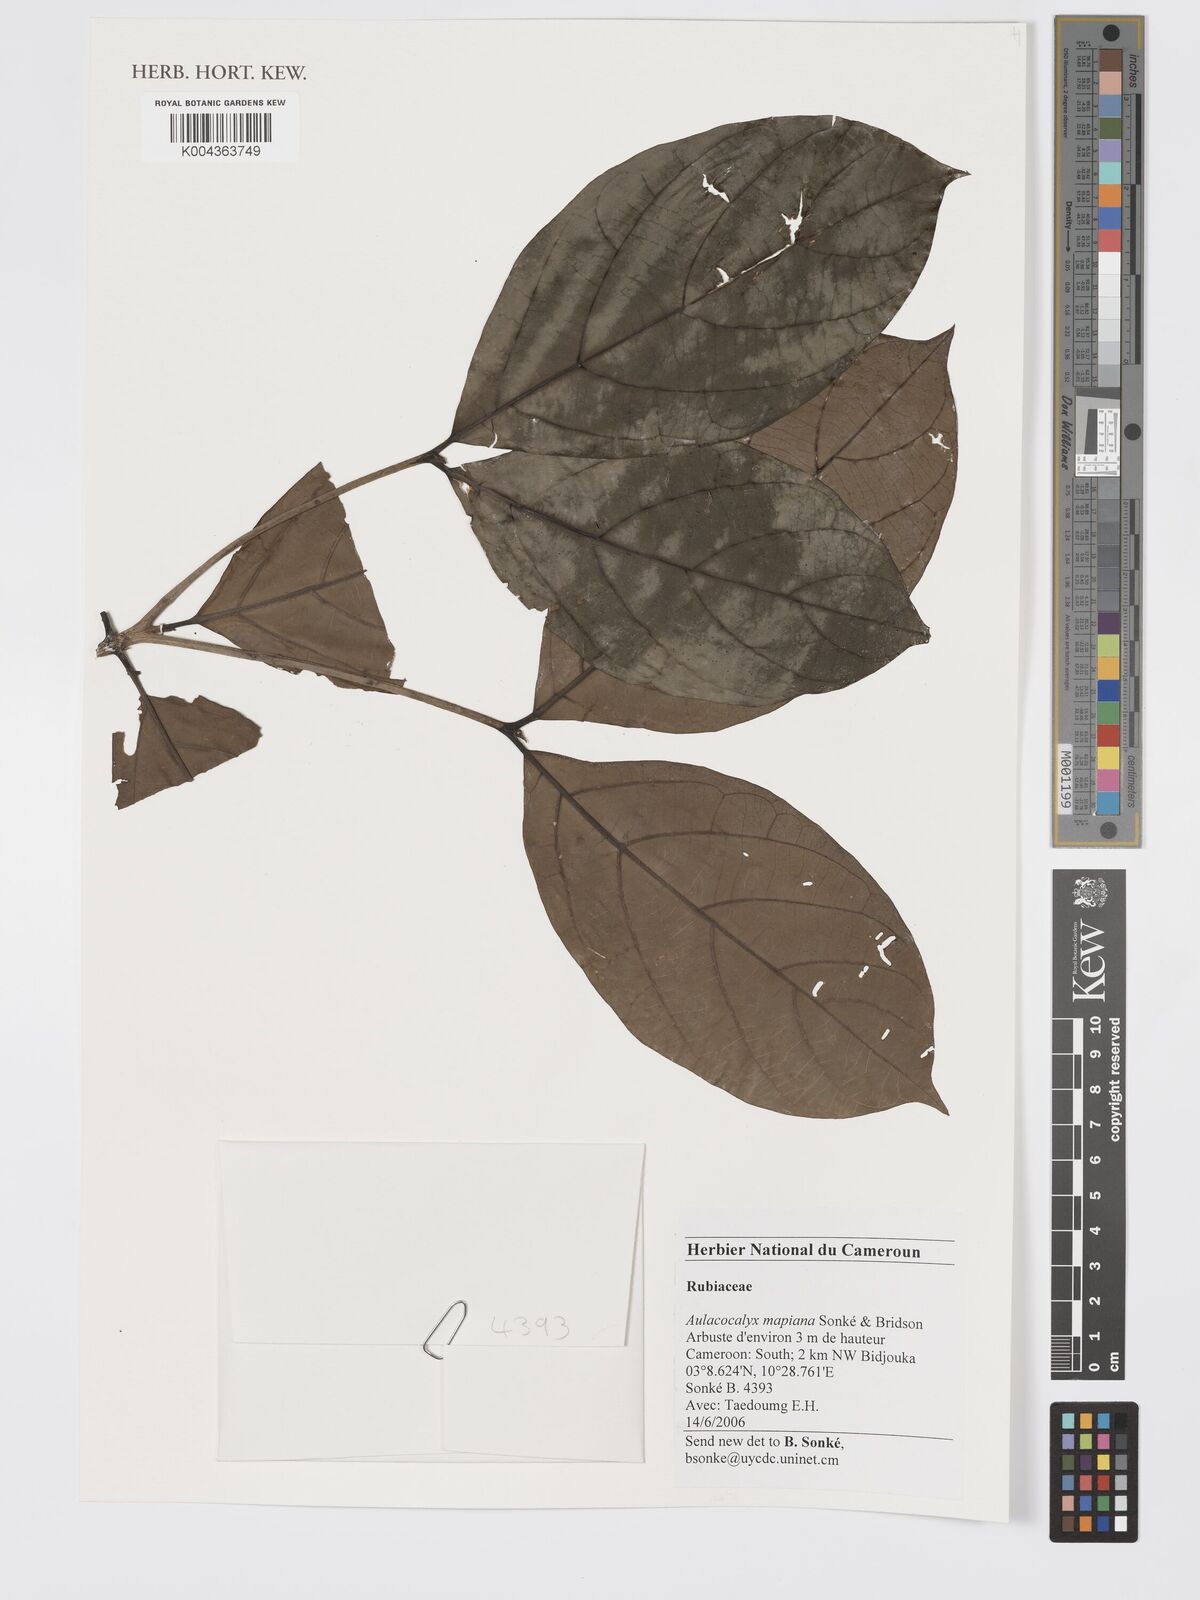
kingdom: Plantae
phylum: Tracheophyta
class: Magnoliopsida
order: Gentianales
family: Rubiaceae
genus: Aulacocalyx
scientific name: Aulacocalyx mapiana
